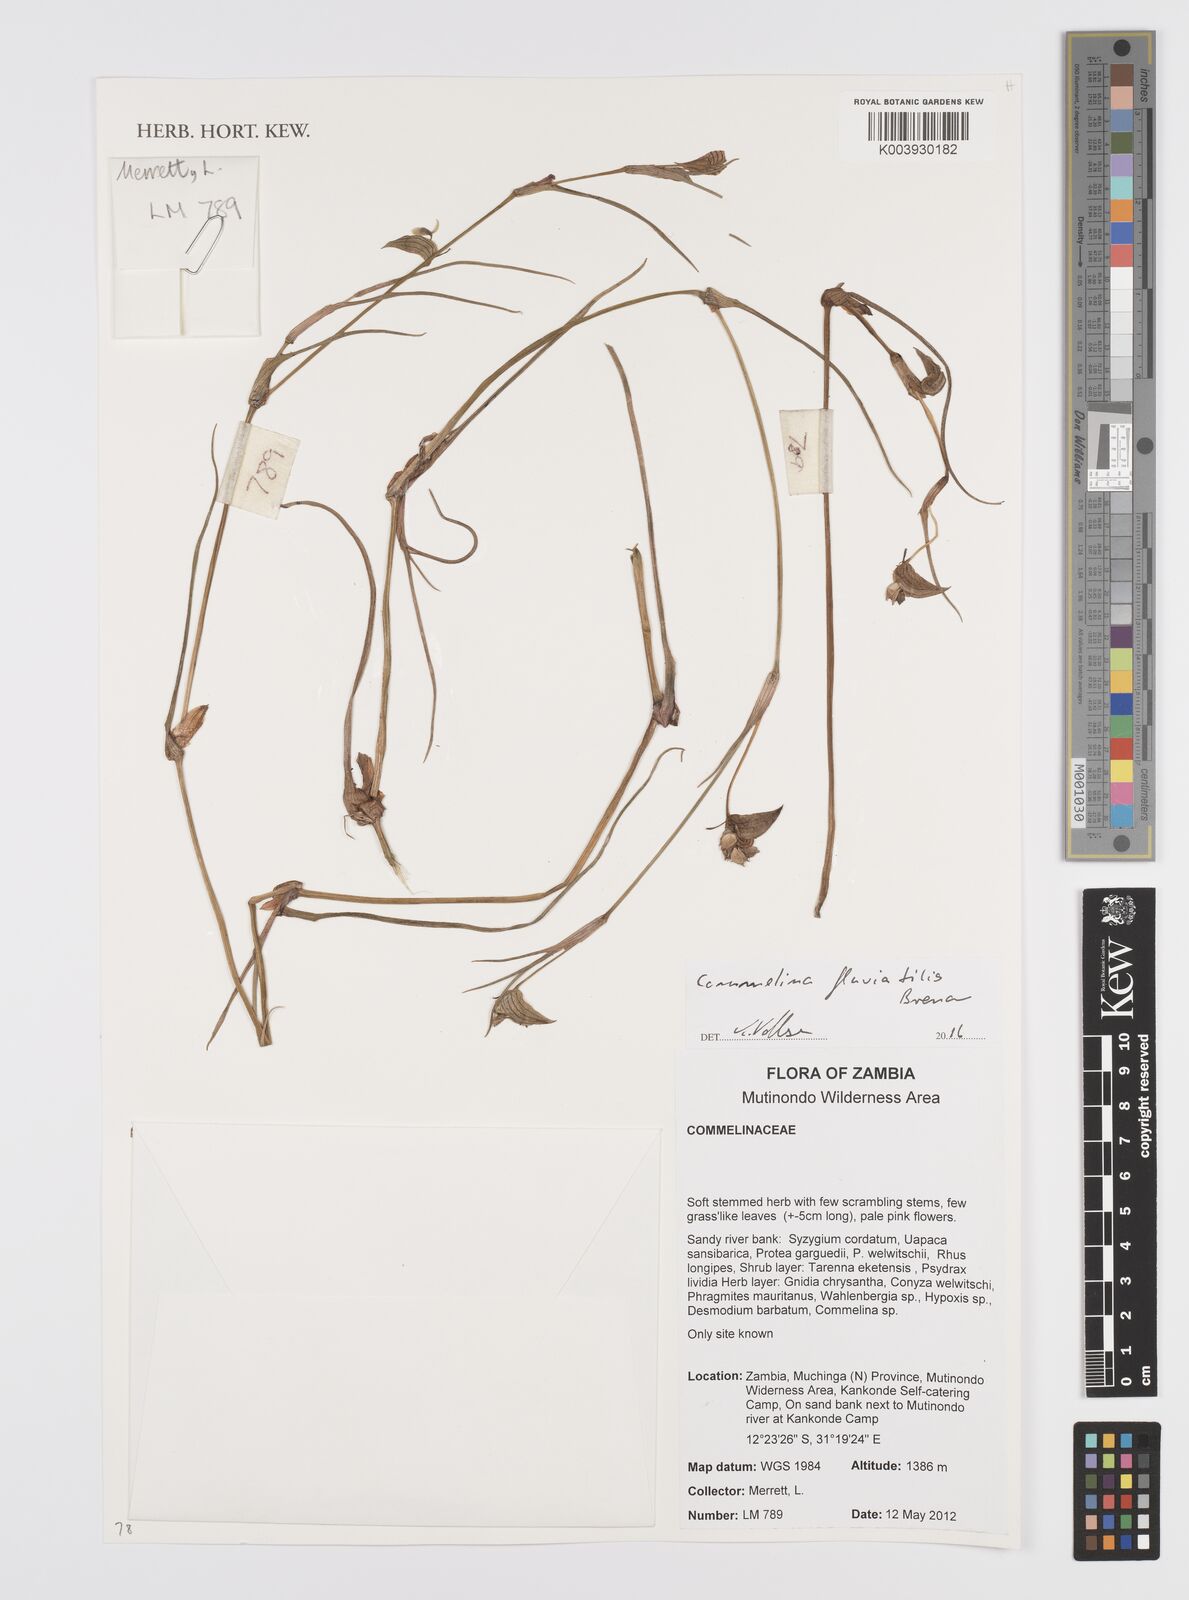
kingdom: Plantae
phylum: Tracheophyta
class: Liliopsida
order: Commelinales
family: Commelinaceae
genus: Commelina
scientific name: Commelina fluviatilis
